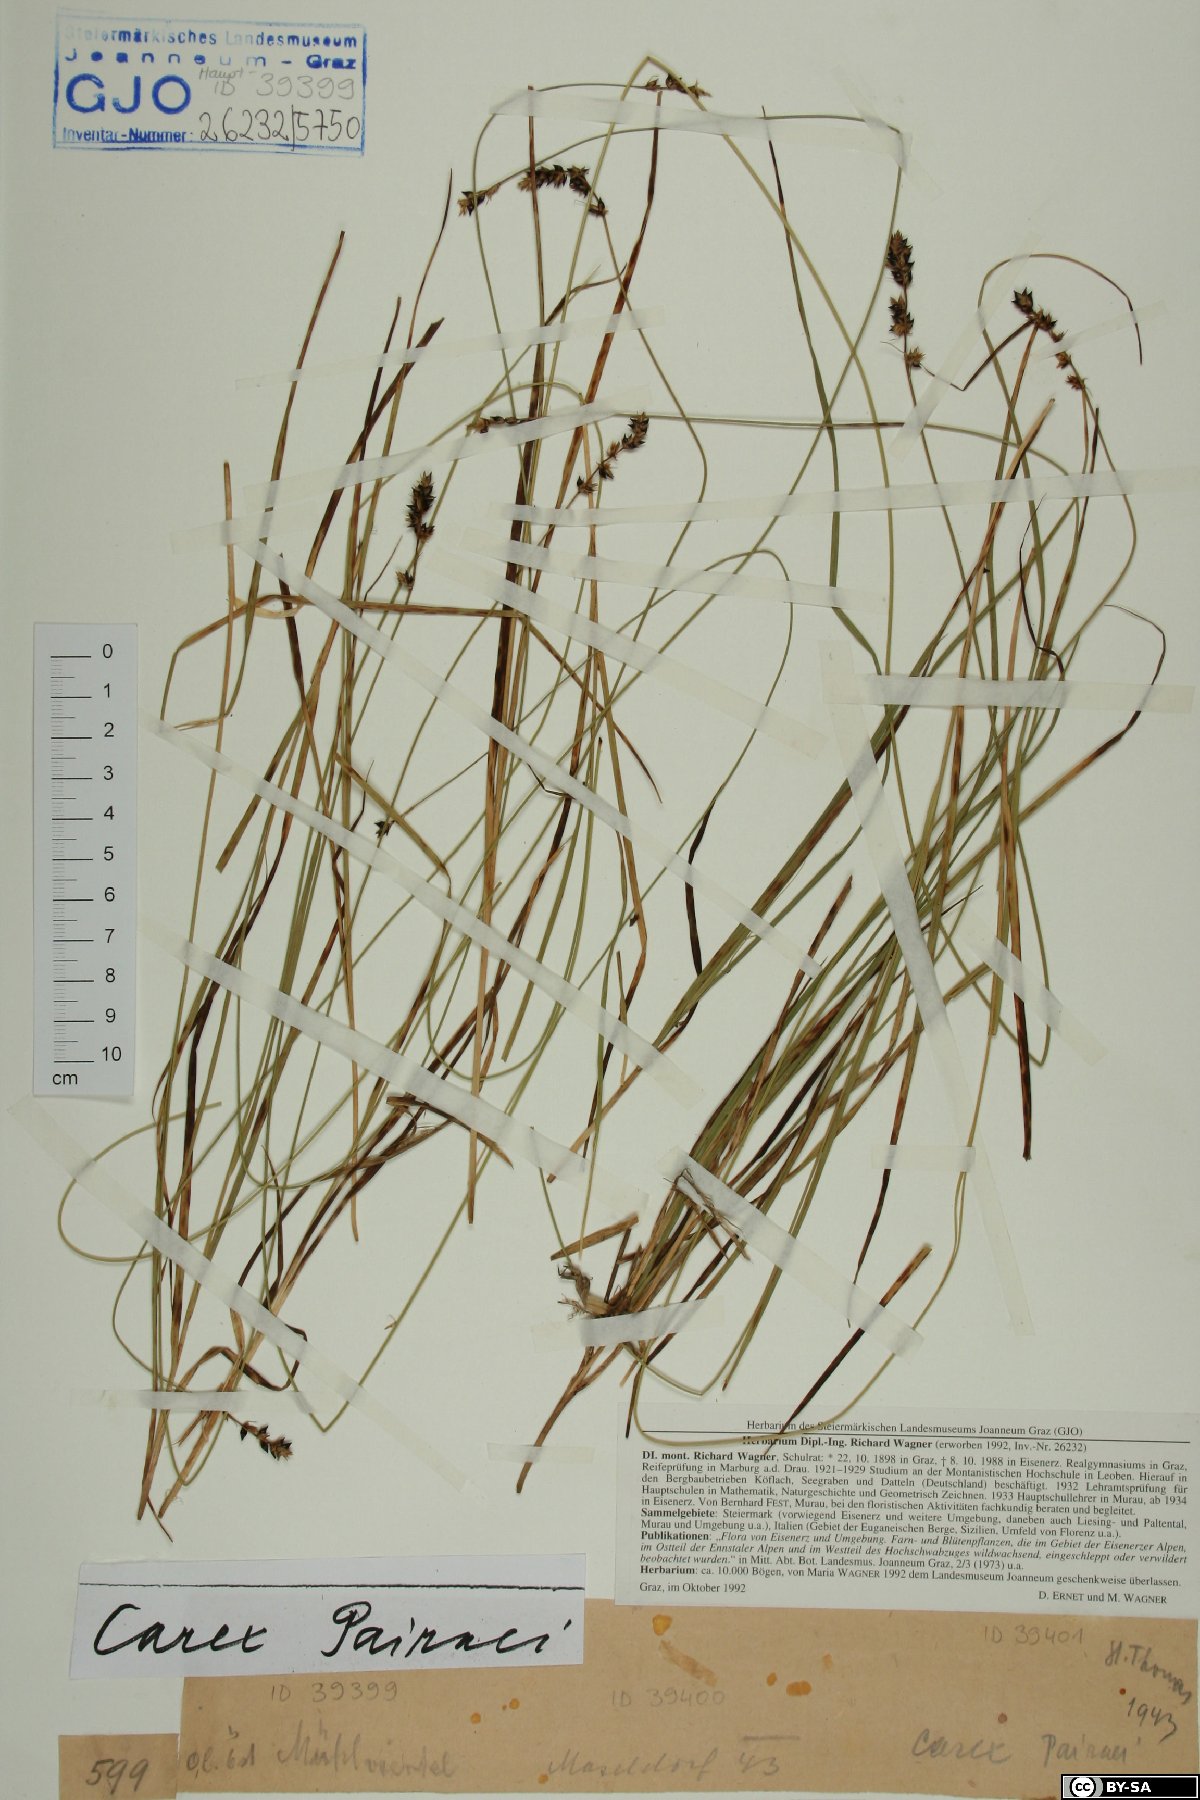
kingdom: Plantae
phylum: Tracheophyta
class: Liliopsida
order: Poales
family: Cyperaceae
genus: Carex
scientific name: Carex pairae
